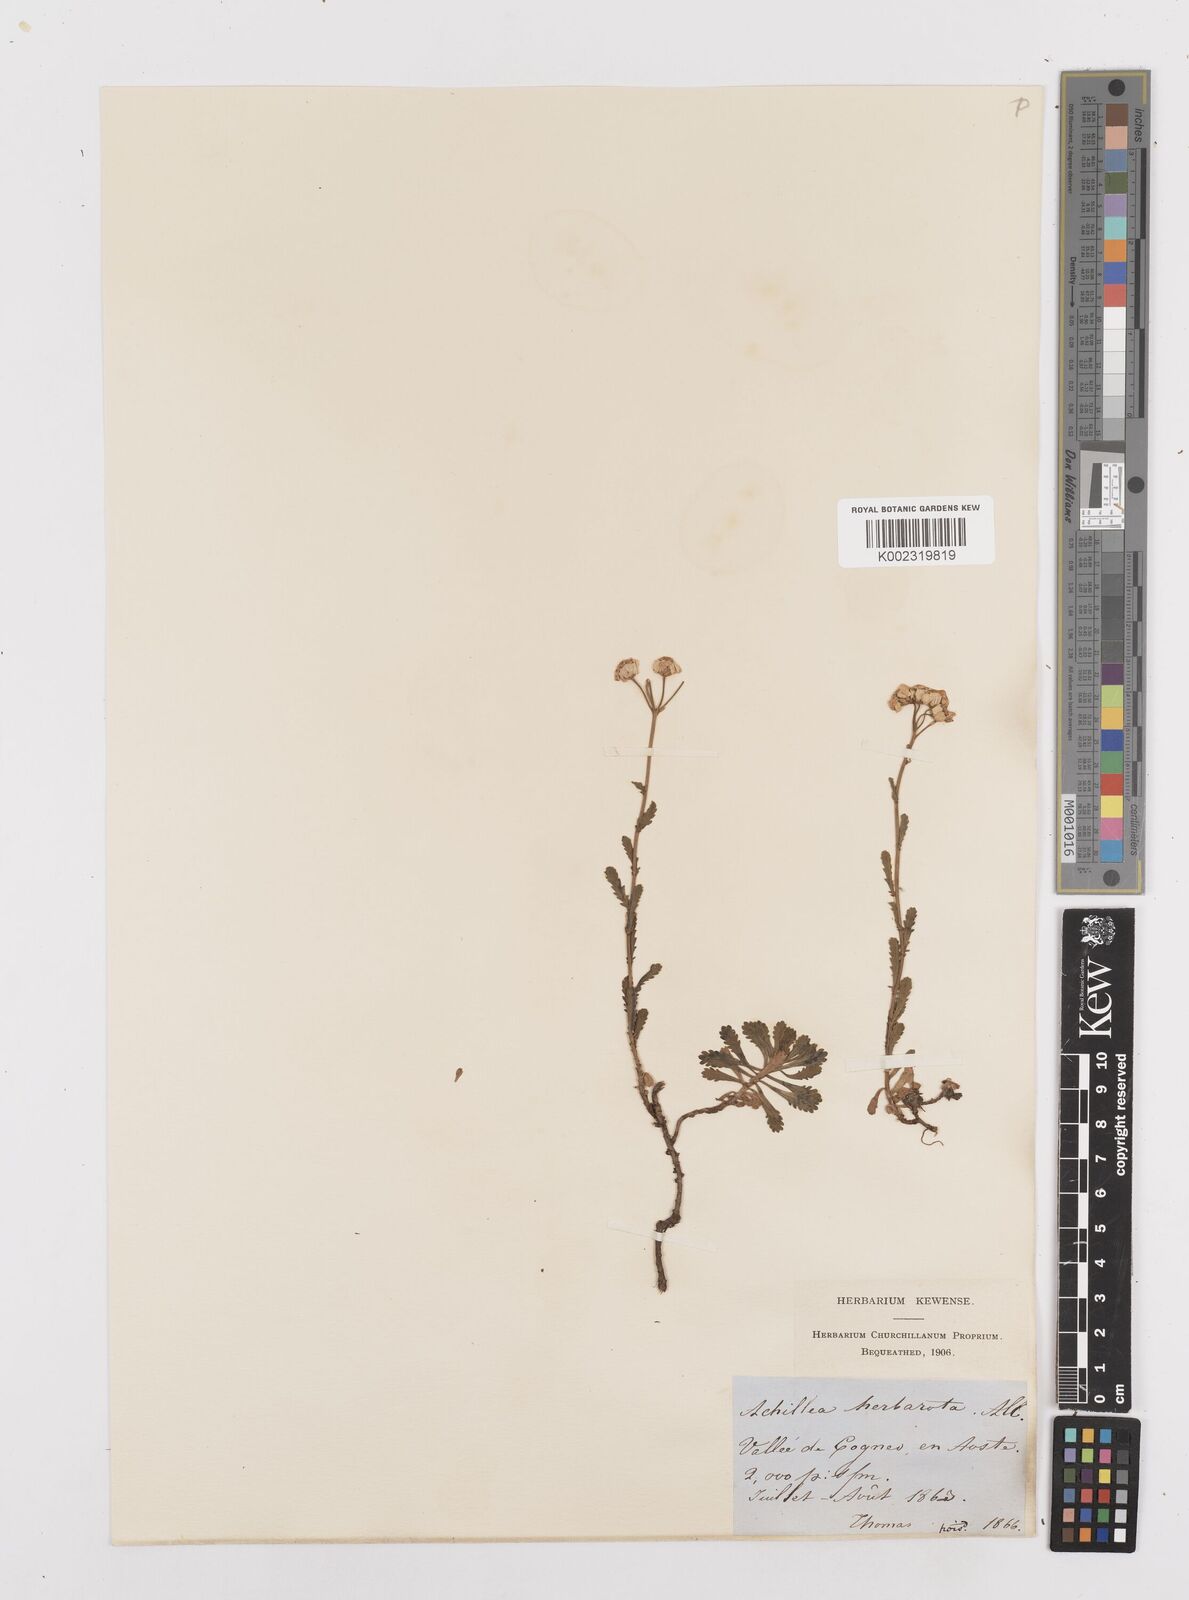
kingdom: Plantae
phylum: Tracheophyta
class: Magnoliopsida
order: Asterales
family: Asteraceae
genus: Achillea
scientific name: Achillea erba-rotta
